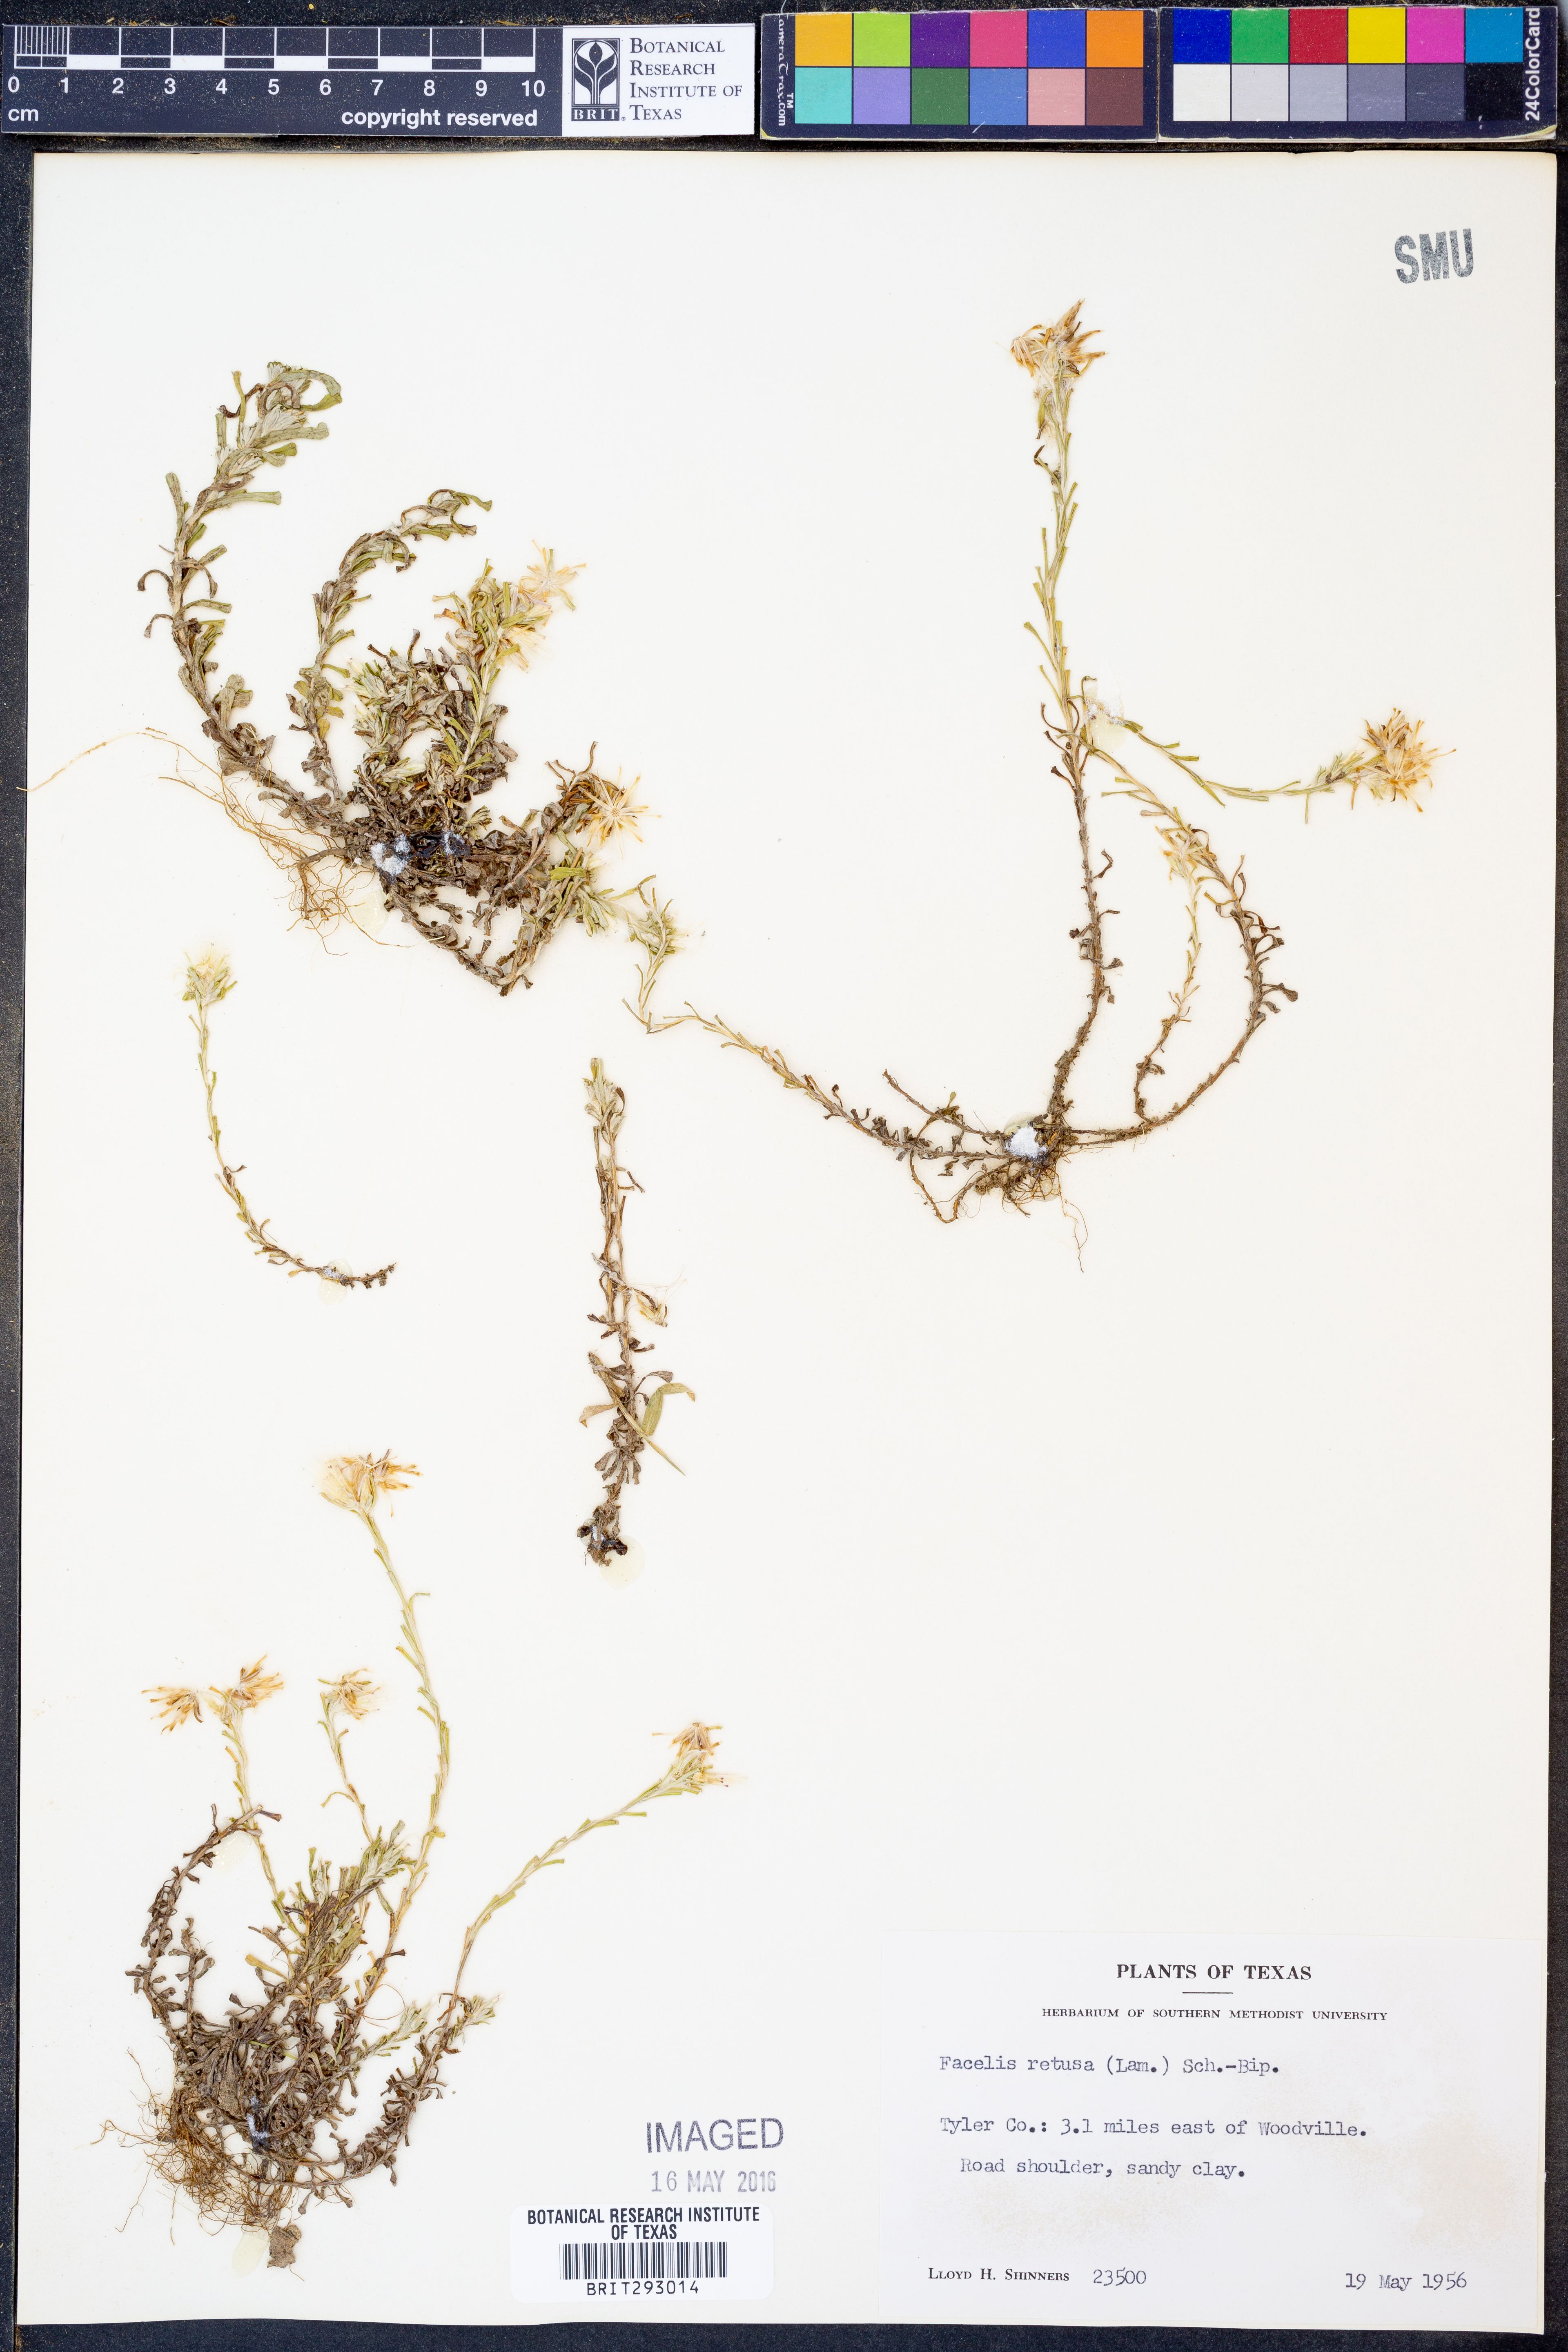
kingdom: Plantae
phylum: Tracheophyta
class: Magnoliopsida
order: Asterales
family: Asteraceae
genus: Facelis
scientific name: Facelis retusa
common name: Annual trampweed
